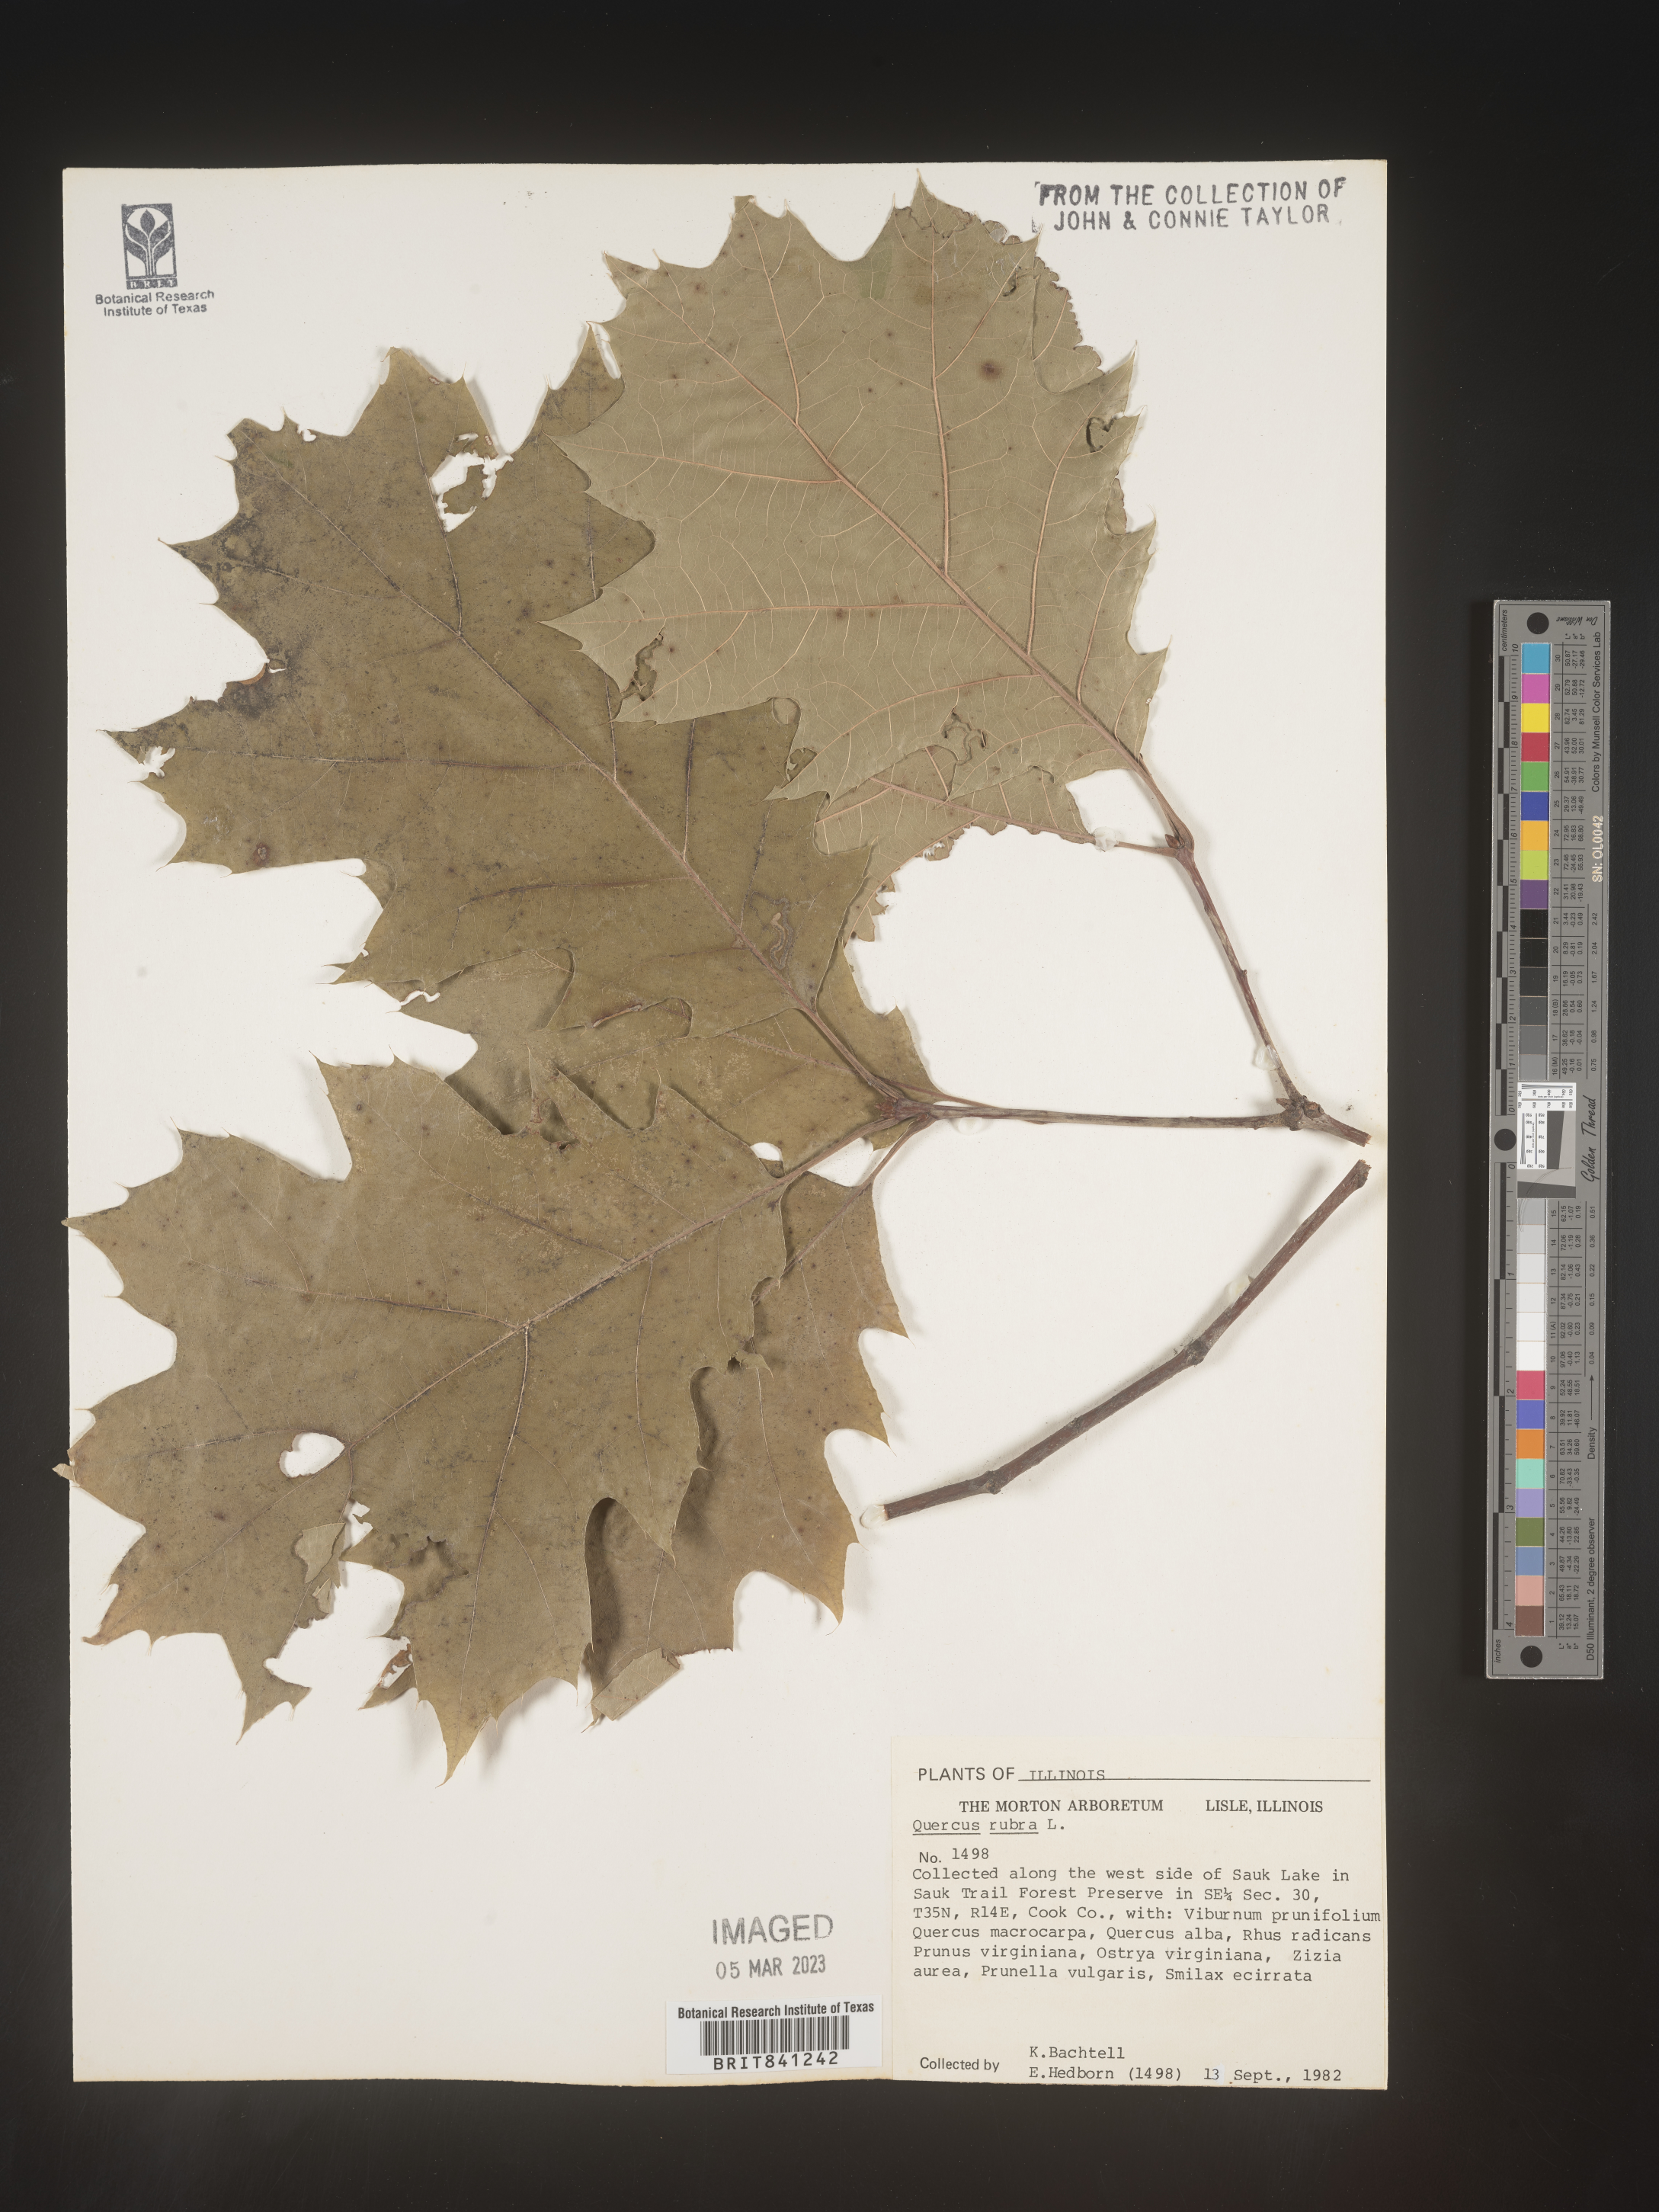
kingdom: Plantae
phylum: Tracheophyta
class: Magnoliopsida
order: Fagales
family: Fagaceae
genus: Quercus
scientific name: Quercus rubra
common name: Red oak
